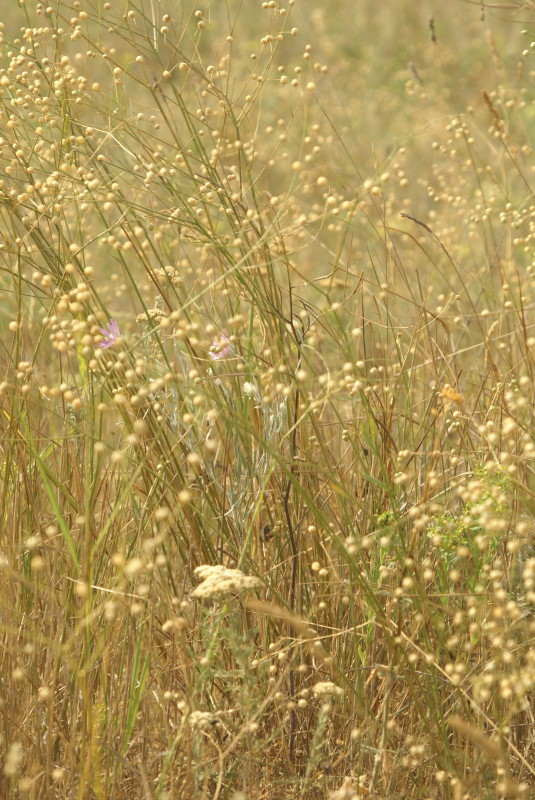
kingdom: Plantae
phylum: Tracheophyta
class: Magnoliopsida
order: Malpighiales
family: Linaceae
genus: Linum
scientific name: Linum usitatissimum
